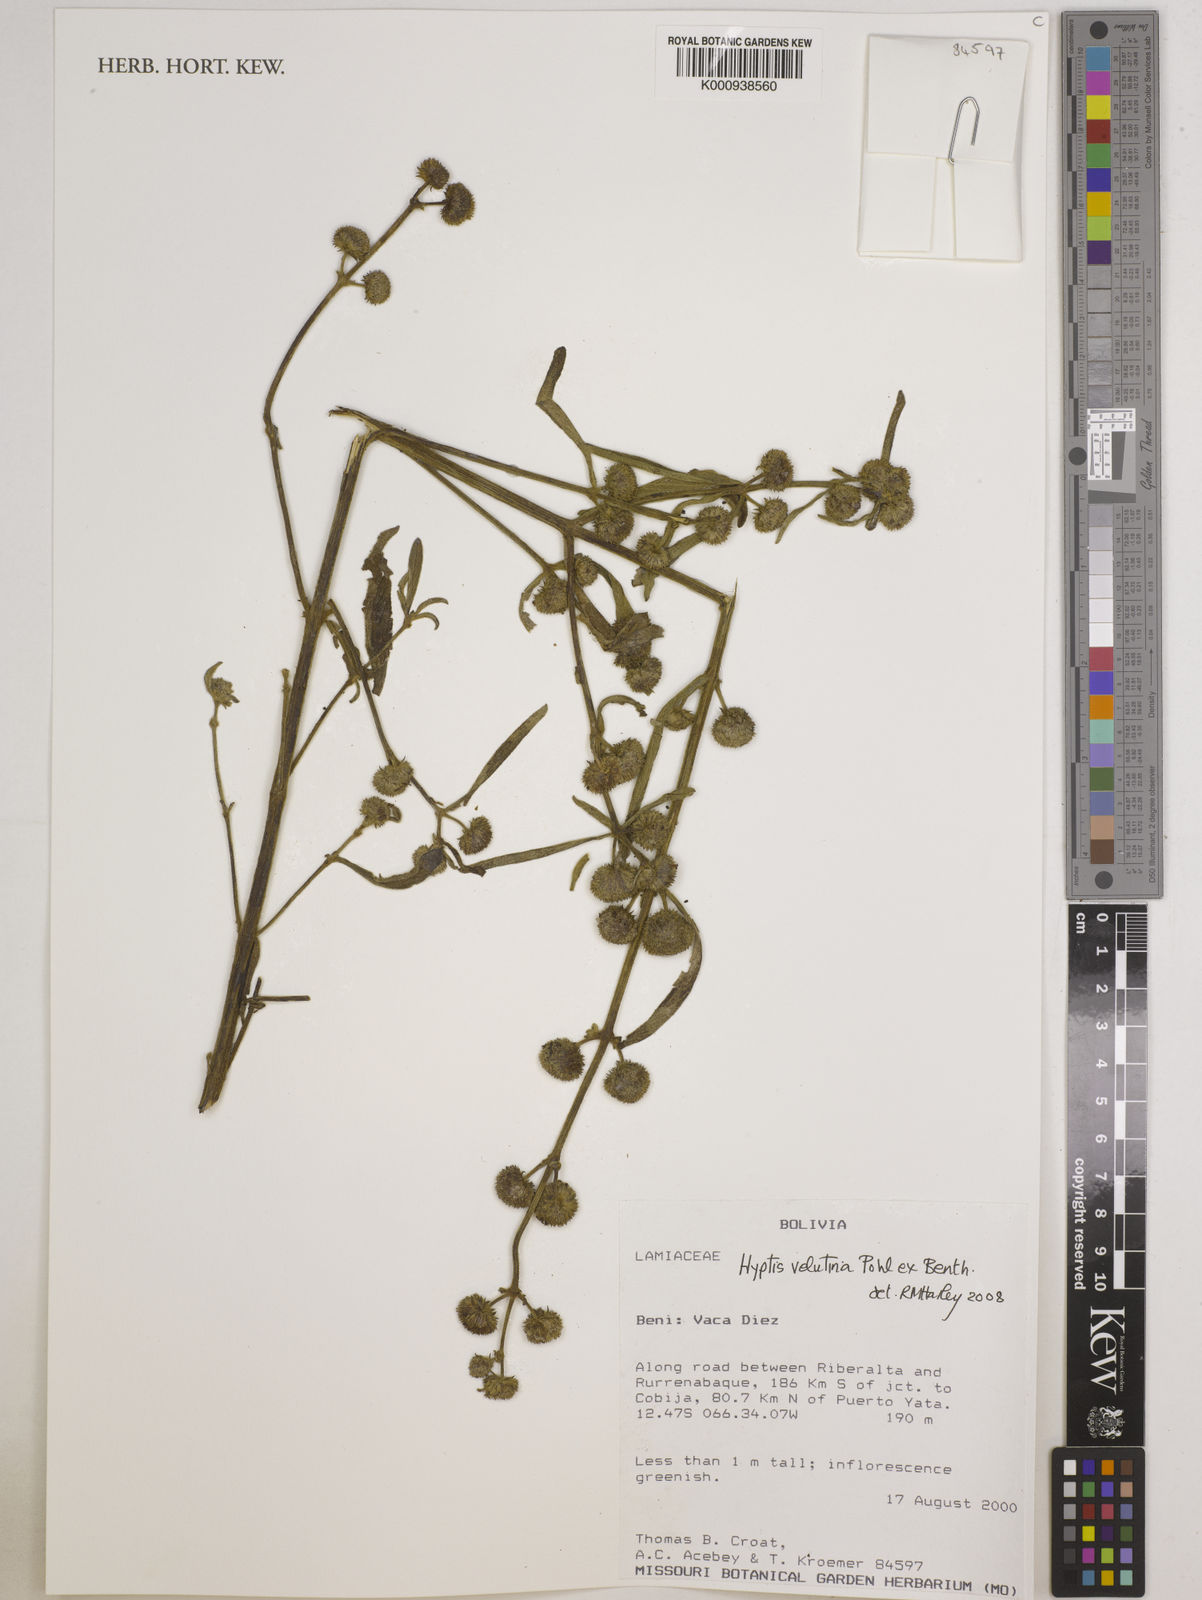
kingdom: Plantae
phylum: Tracheophyta
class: Magnoliopsida
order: Lamiales
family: Lamiaceae
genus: Hyptis
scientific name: Hyptis velutina
